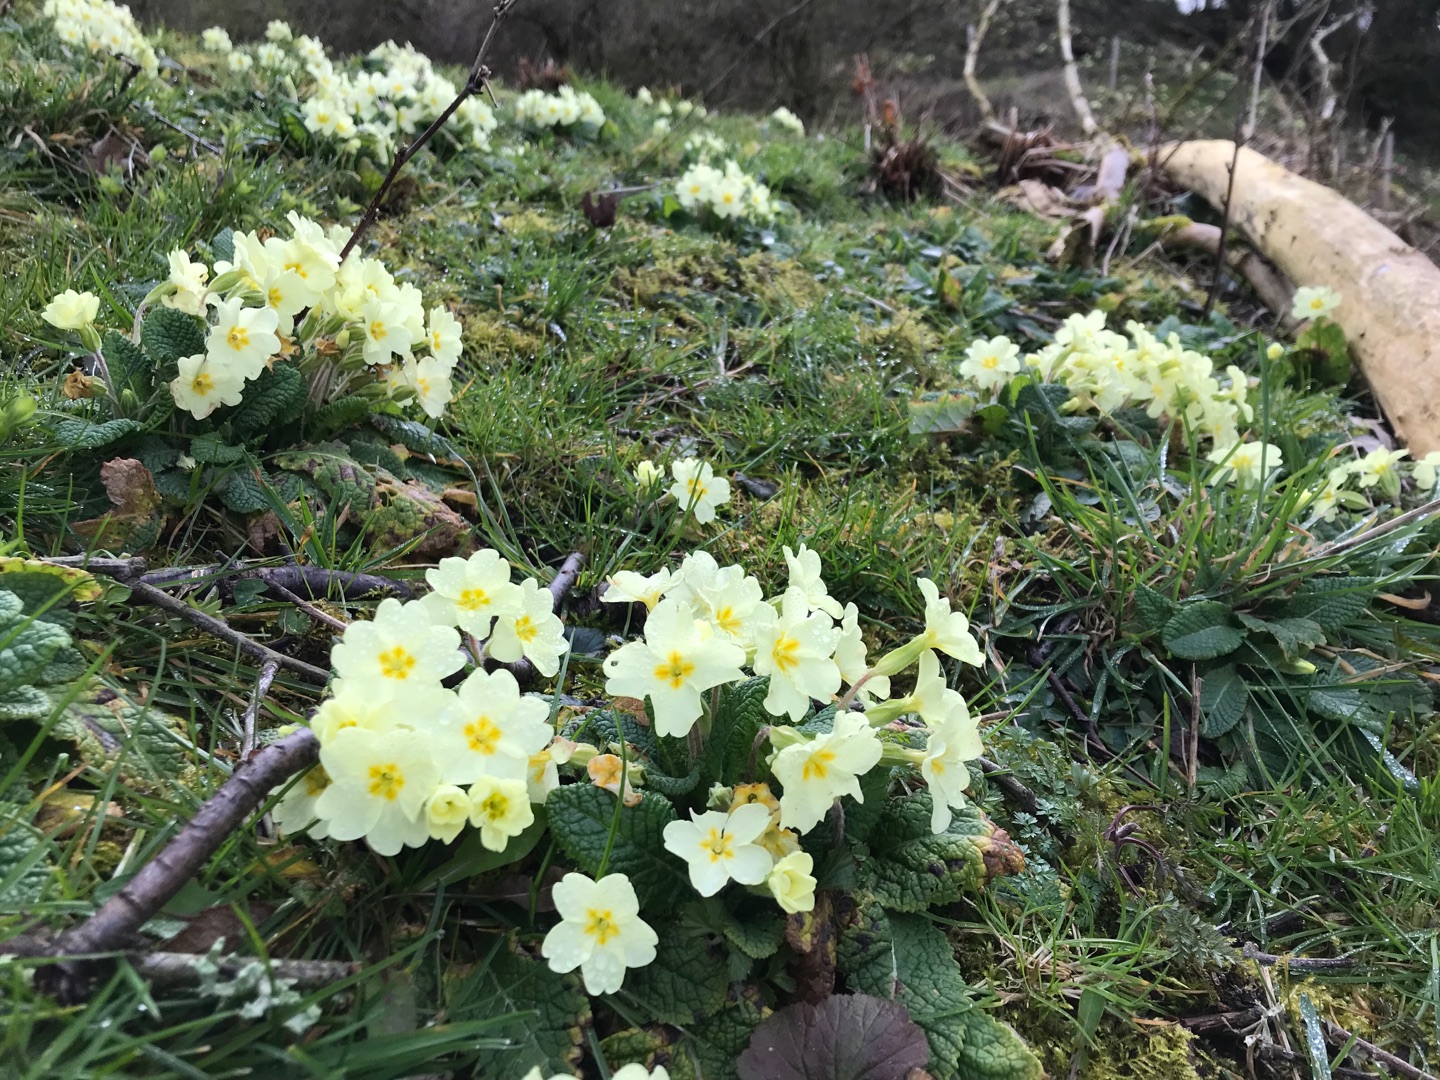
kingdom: Plantae
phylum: Tracheophyta
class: Magnoliopsida
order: Ericales
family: Primulaceae
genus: Primula
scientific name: Primula vulgaris
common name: Storblomstret kodriver
